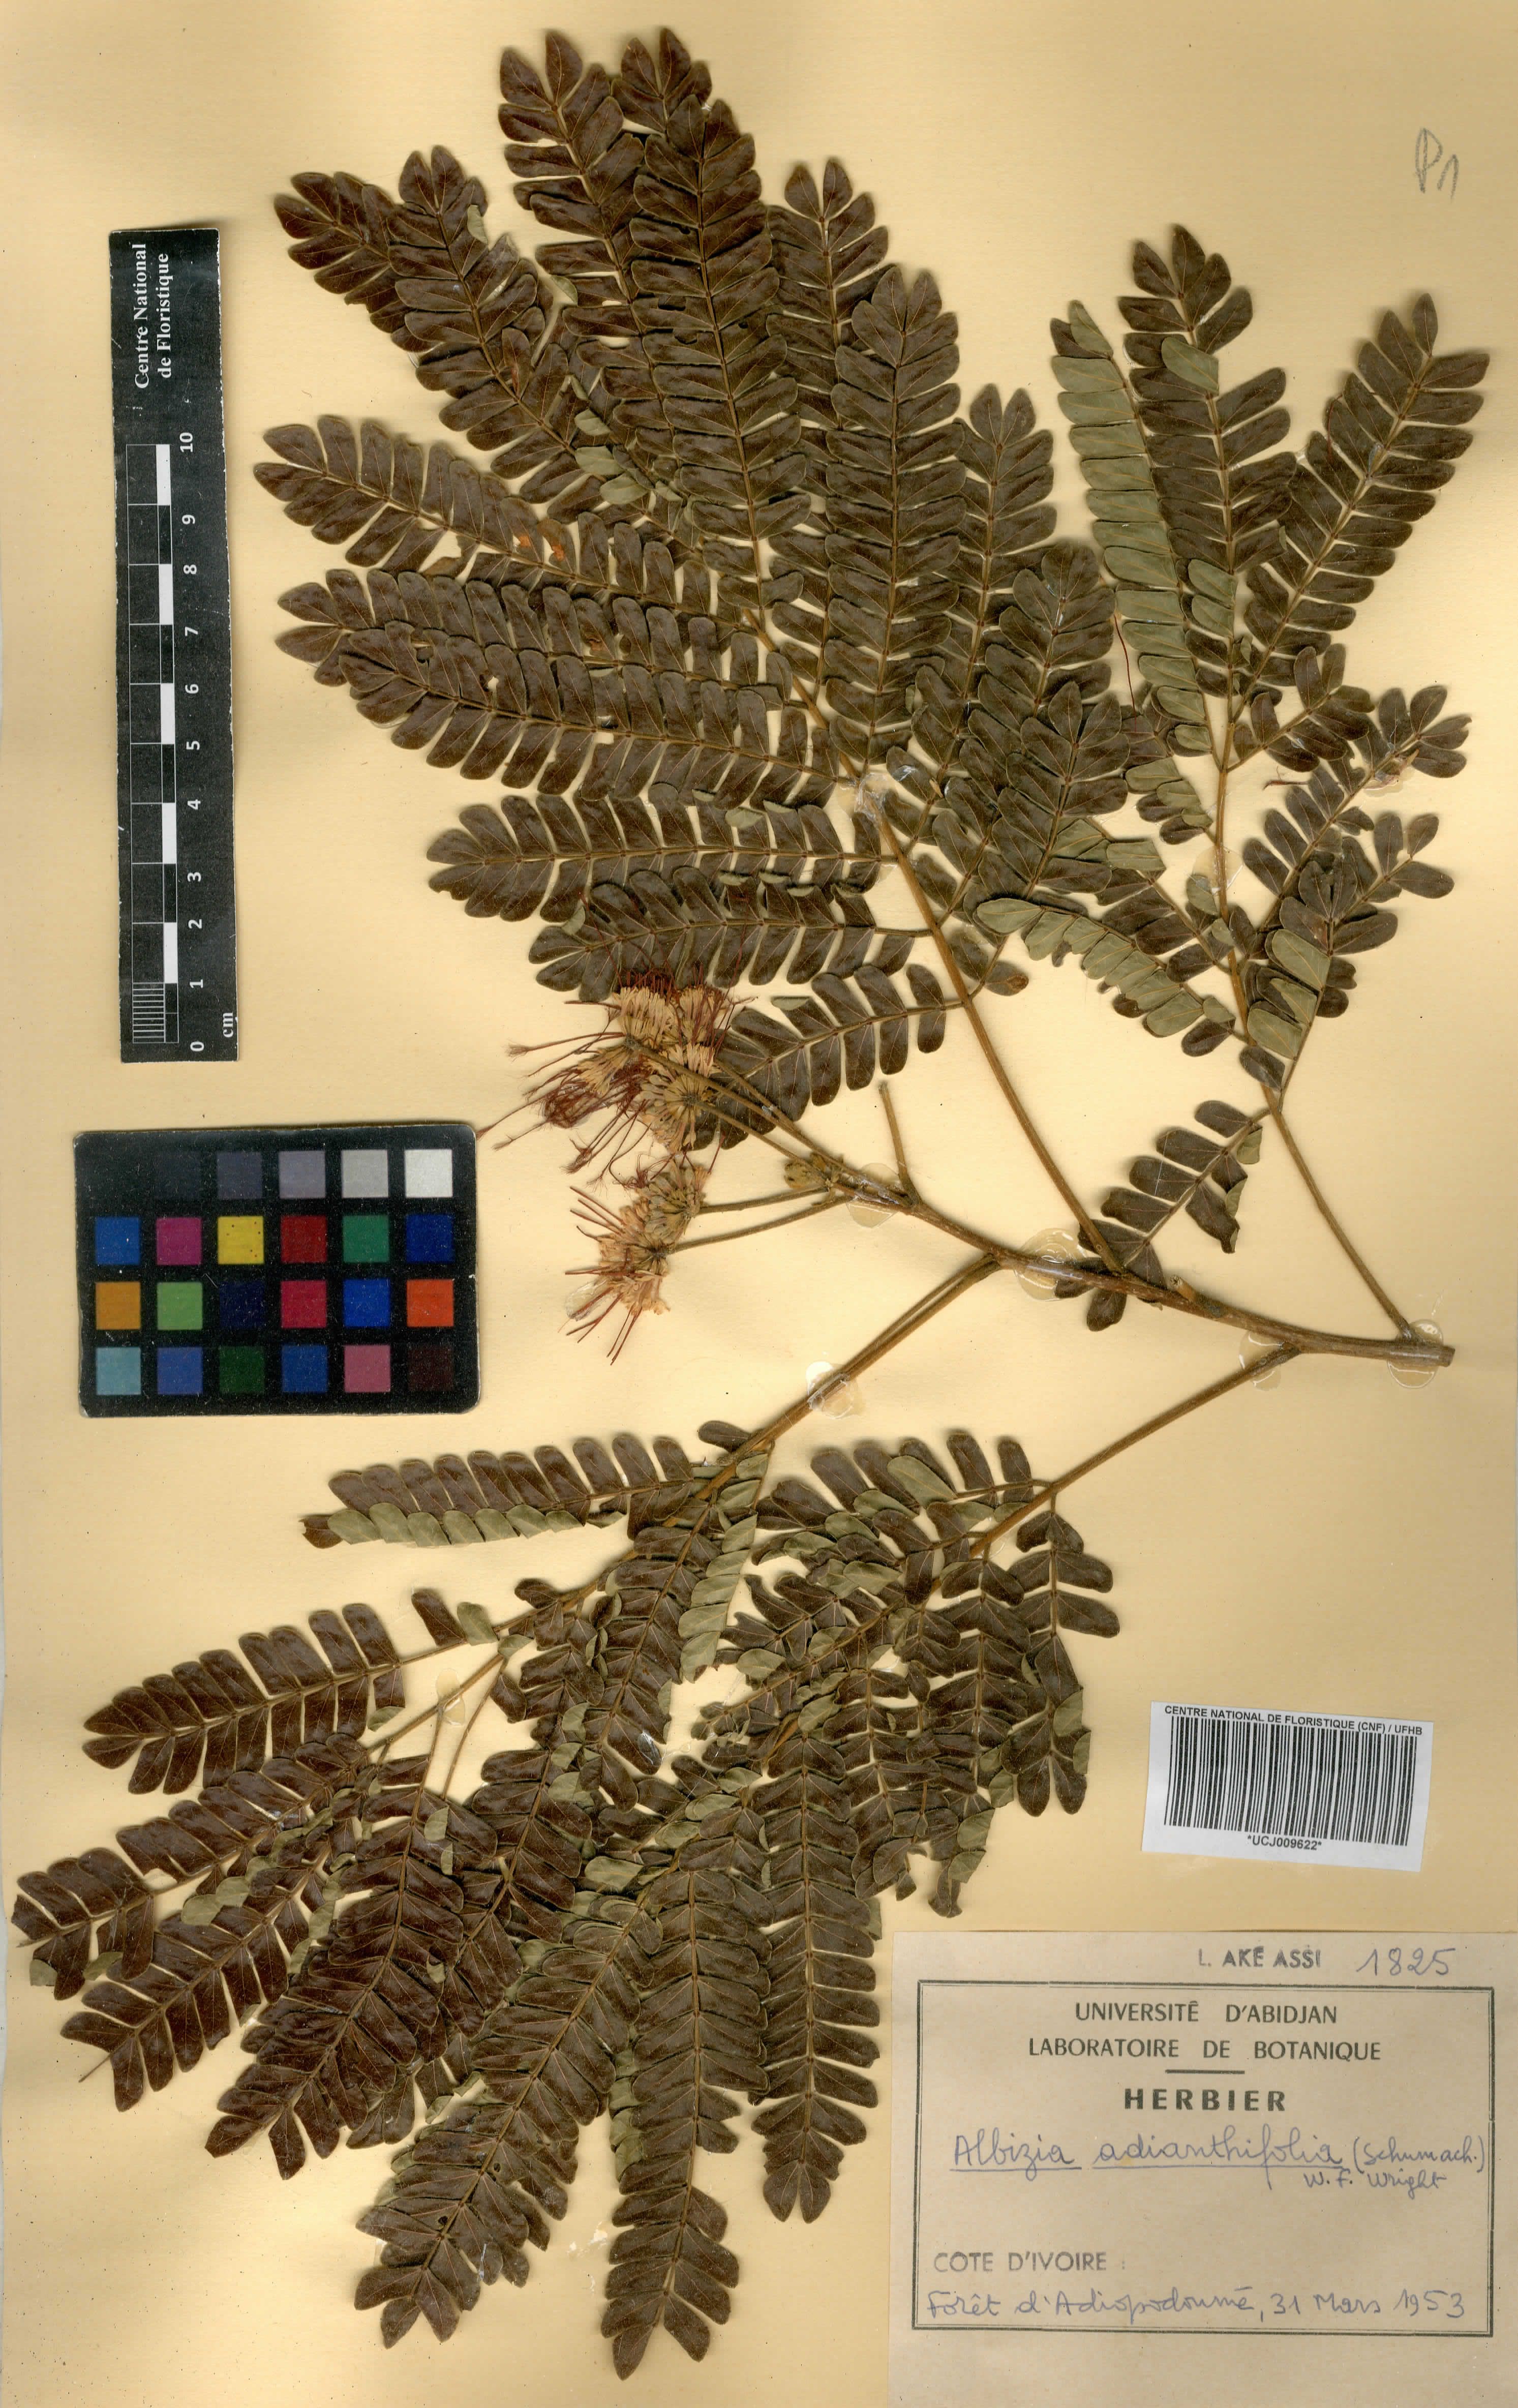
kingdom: Plantae
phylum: Tracheophyta
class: Magnoliopsida
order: Fabales
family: Fabaceae
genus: Albizia
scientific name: Albizia adianthifolia
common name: West african albizia
